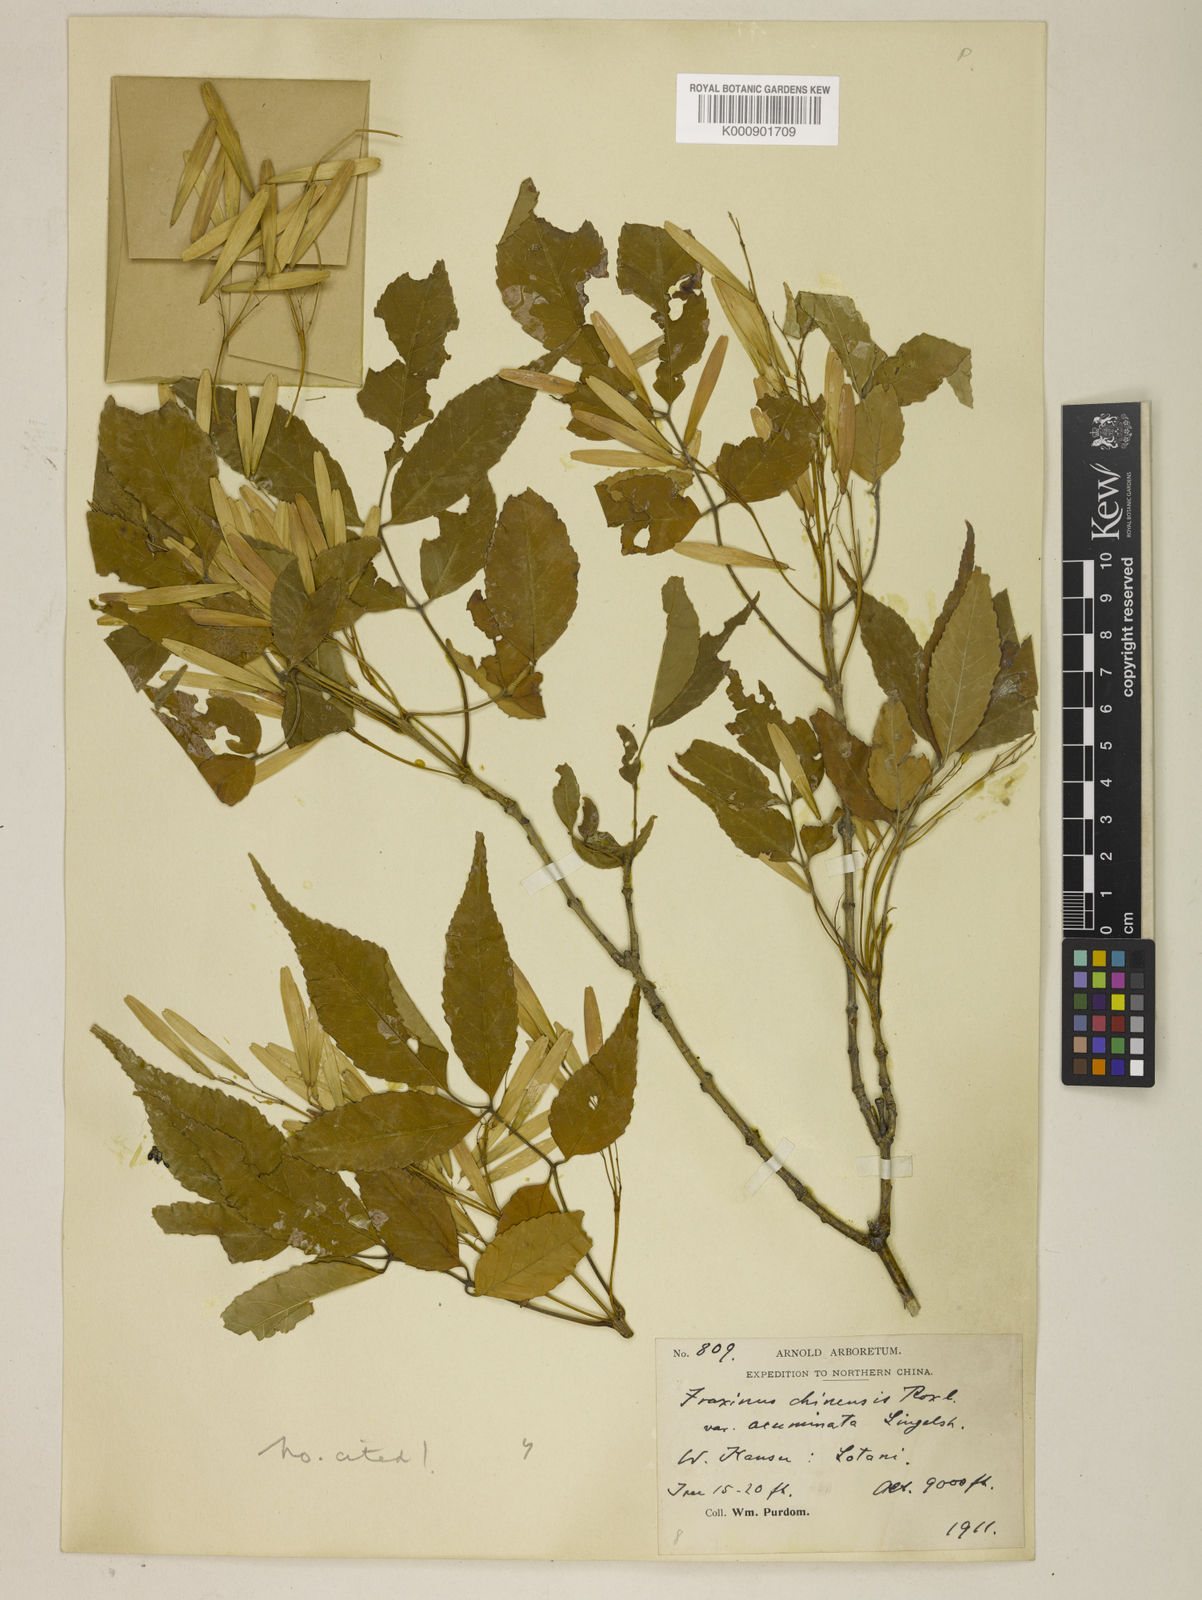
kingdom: Plantae
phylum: Tracheophyta
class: Magnoliopsida
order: Lamiales
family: Oleaceae
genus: Fraxinus
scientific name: Fraxinus chinensis
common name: Chinese ash
